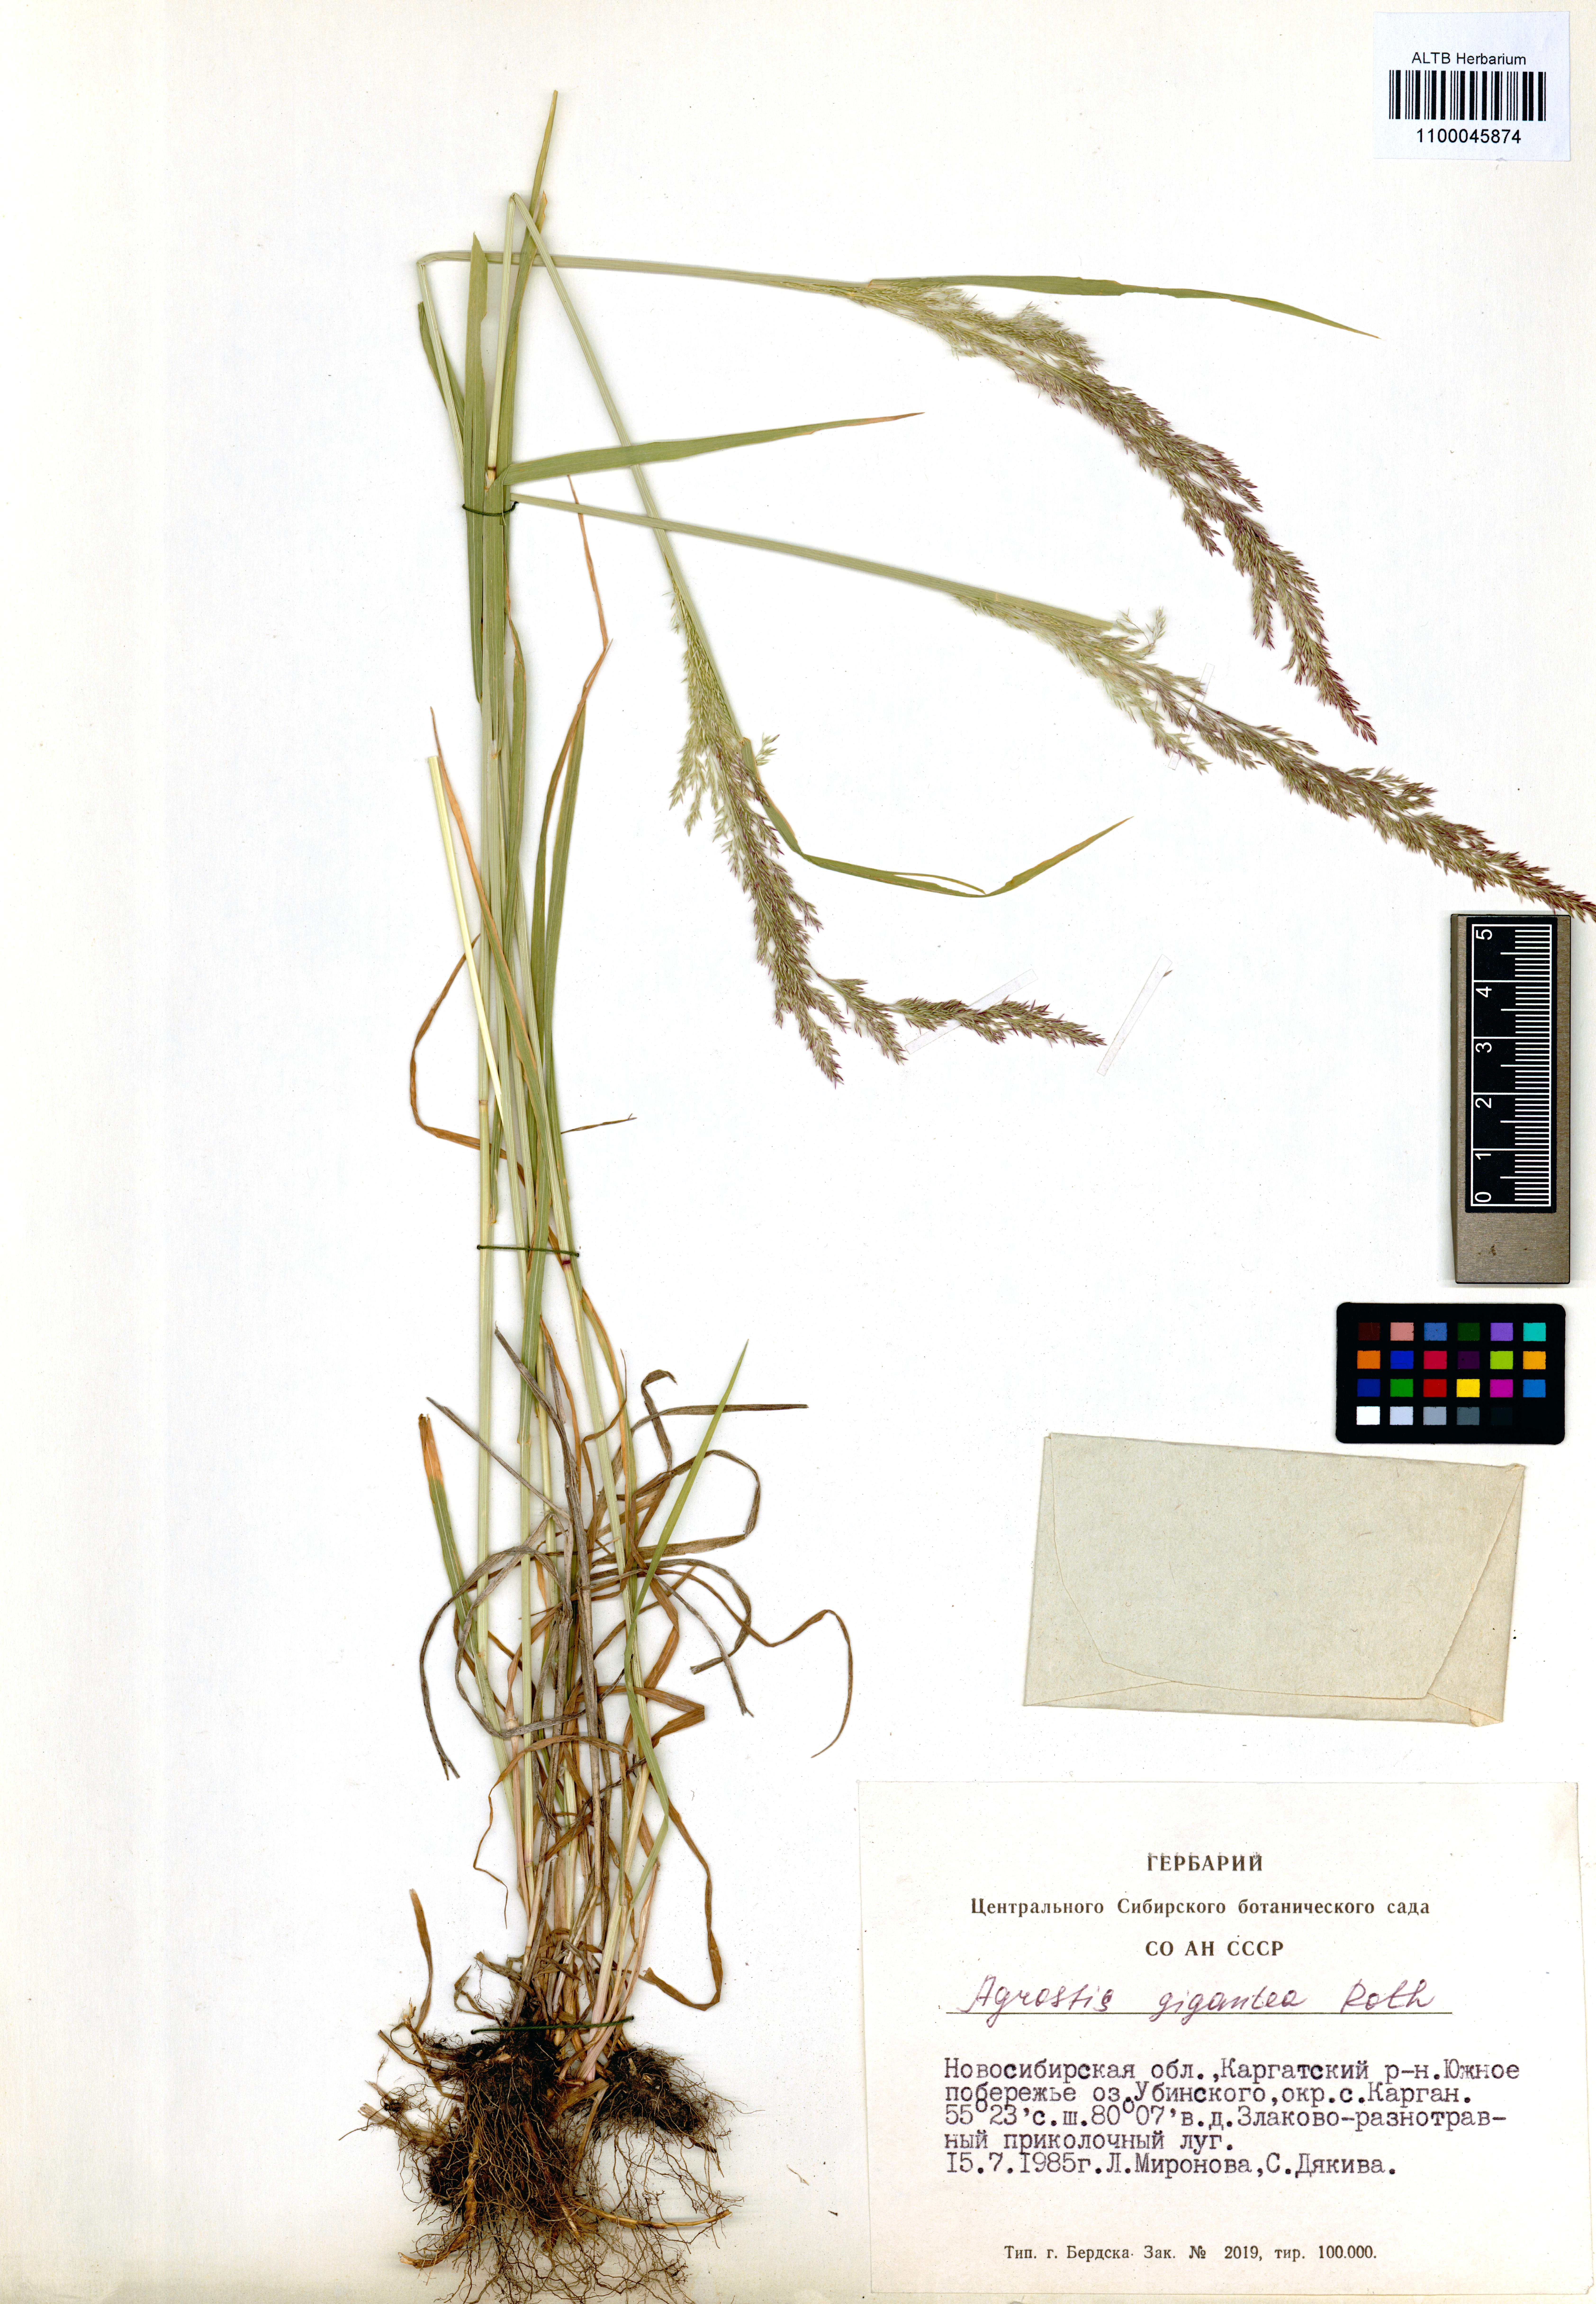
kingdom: Plantae
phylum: Tracheophyta
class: Liliopsida
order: Poales
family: Poaceae
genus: Agrostis
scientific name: Agrostis gigantea
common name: Black bent
